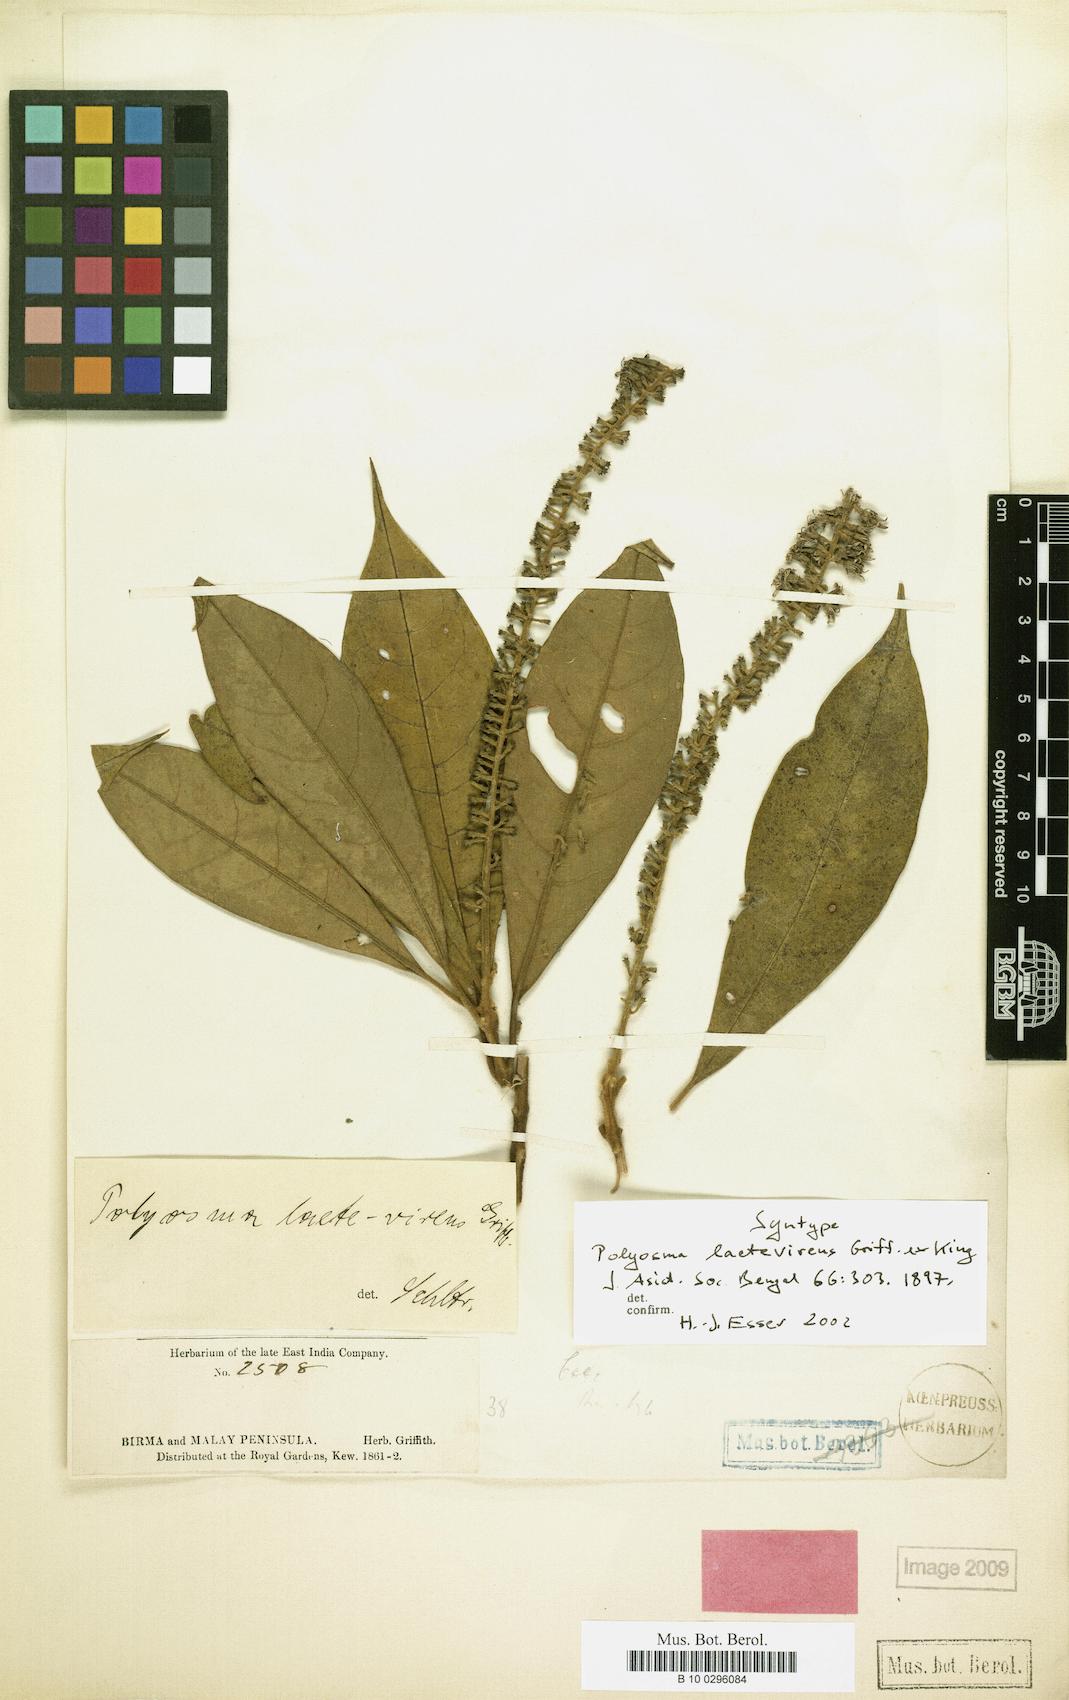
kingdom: Plantae
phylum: Tracheophyta
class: Magnoliopsida
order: Escalloniales
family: Escalloniaceae
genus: Polyosma
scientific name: Polyosma laetevirens
